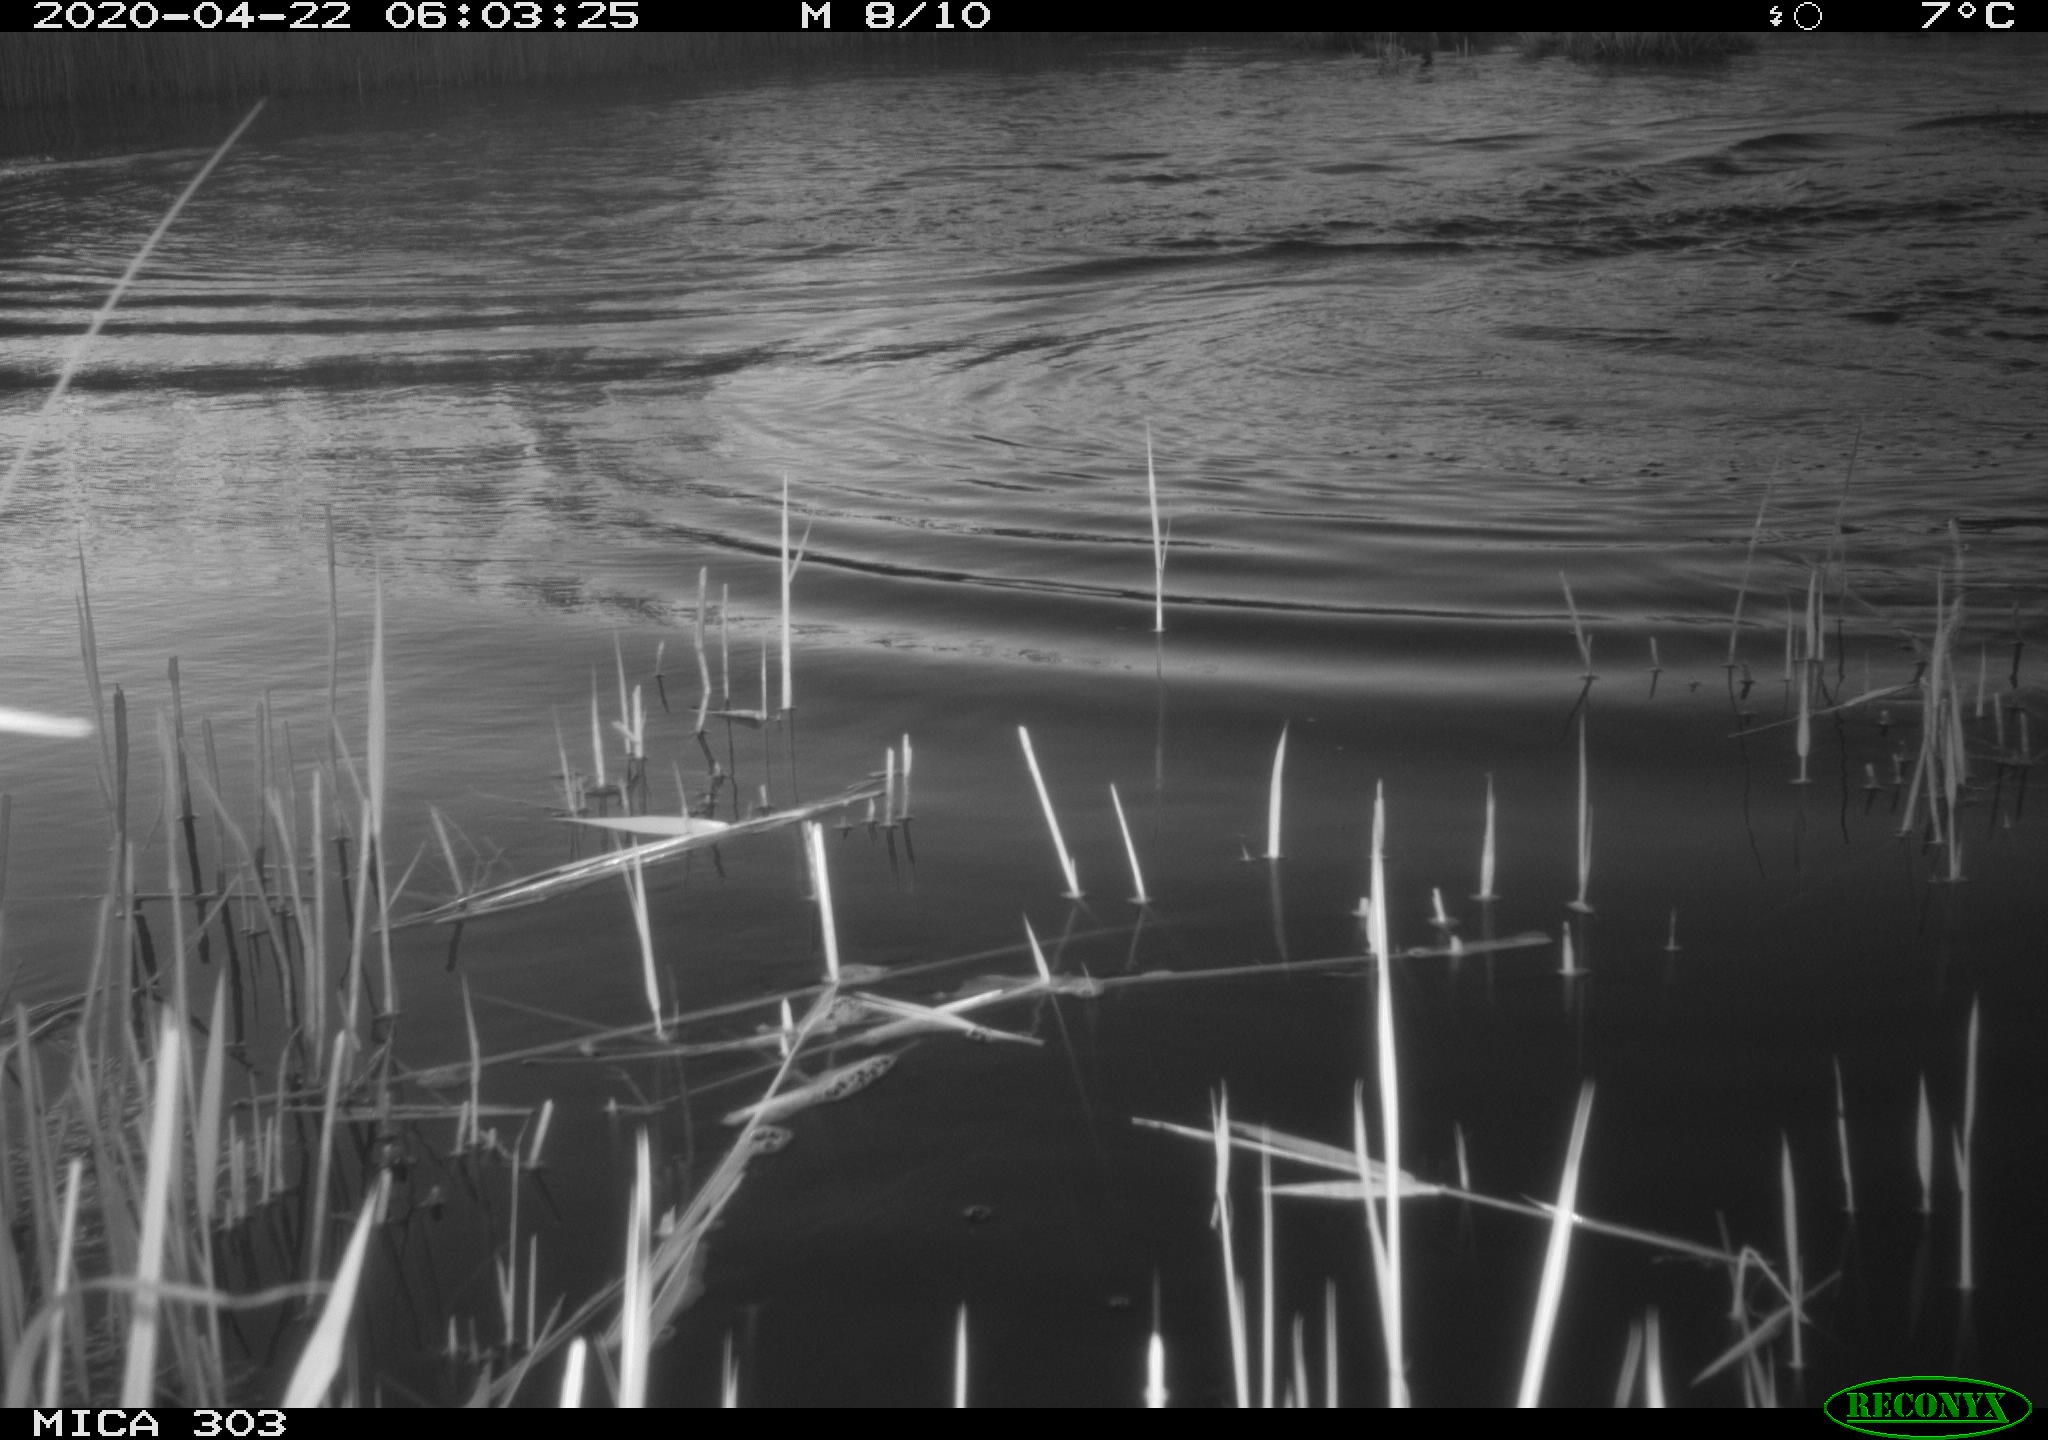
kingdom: Animalia
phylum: Chordata
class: Aves
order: Anseriformes
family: Anatidae
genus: Branta
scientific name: Branta canadensis
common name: Canada goose
